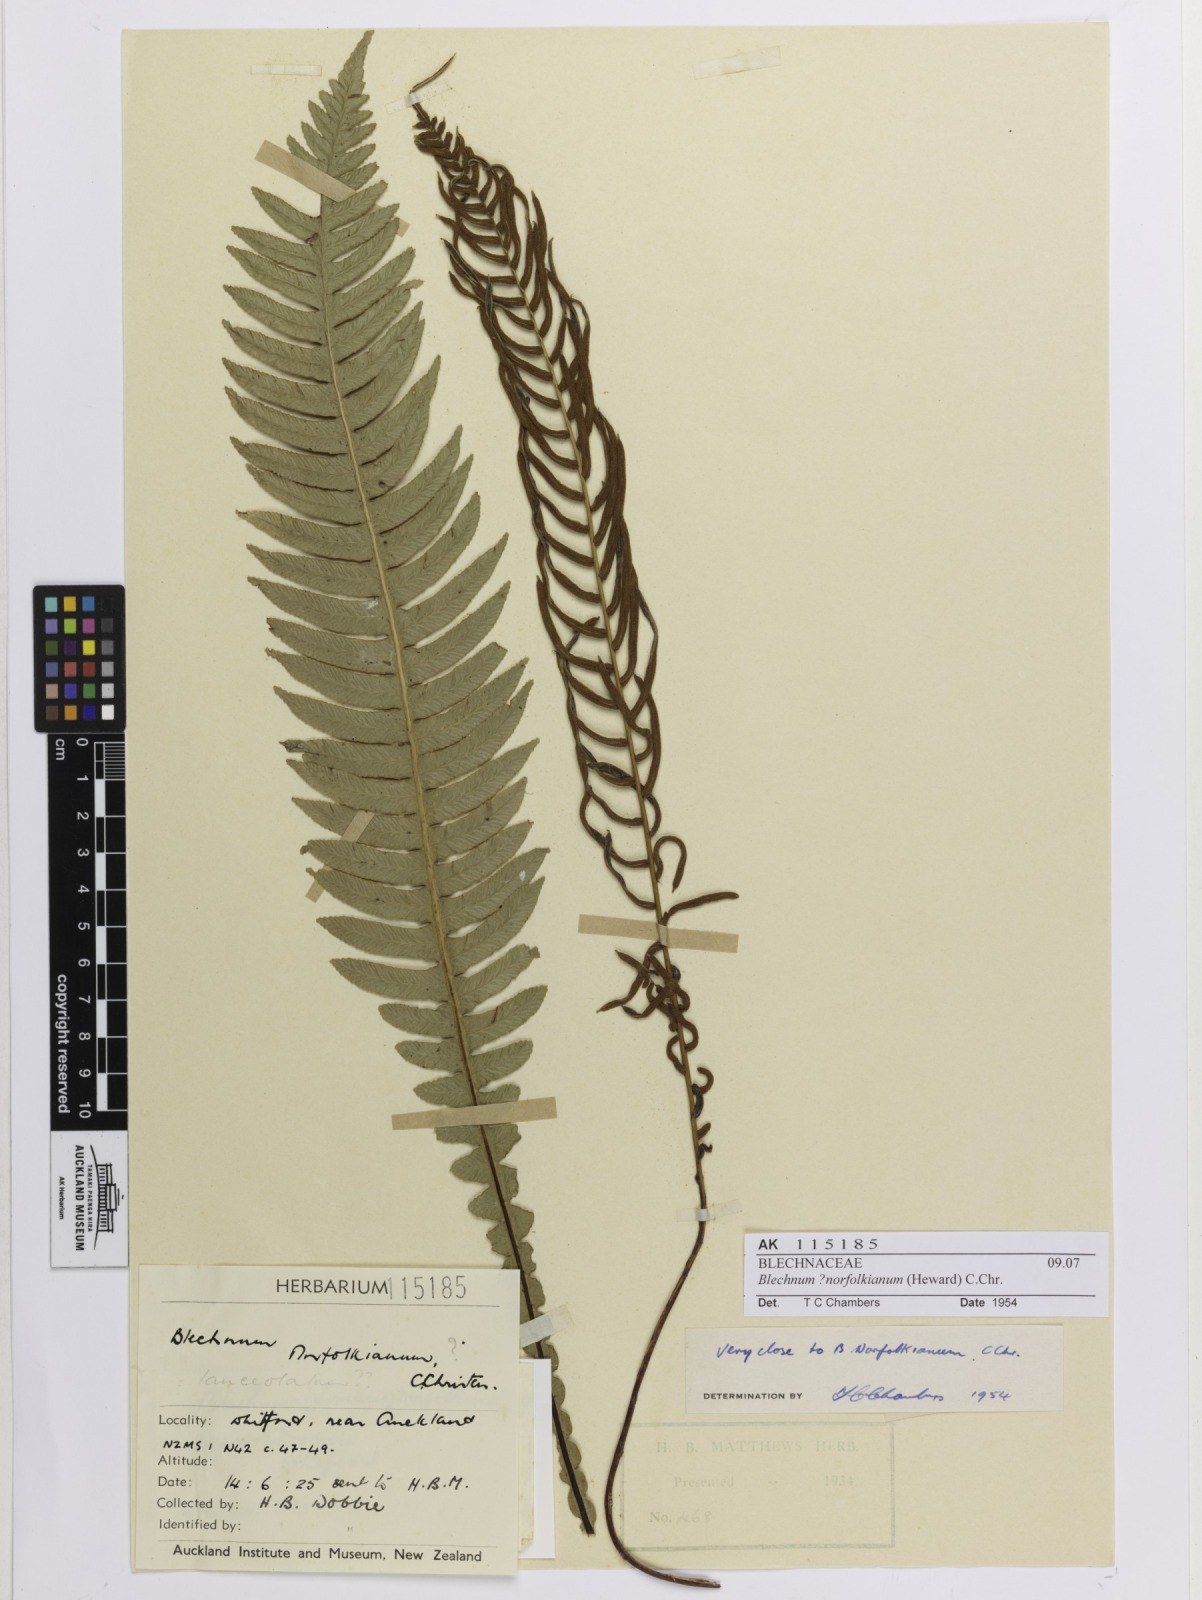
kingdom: Plantae
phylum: Tracheophyta
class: Polypodiopsida
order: Polypodiales
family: Blechnaceae
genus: Austroblechnum
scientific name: Austroblechnum lanceolatum
